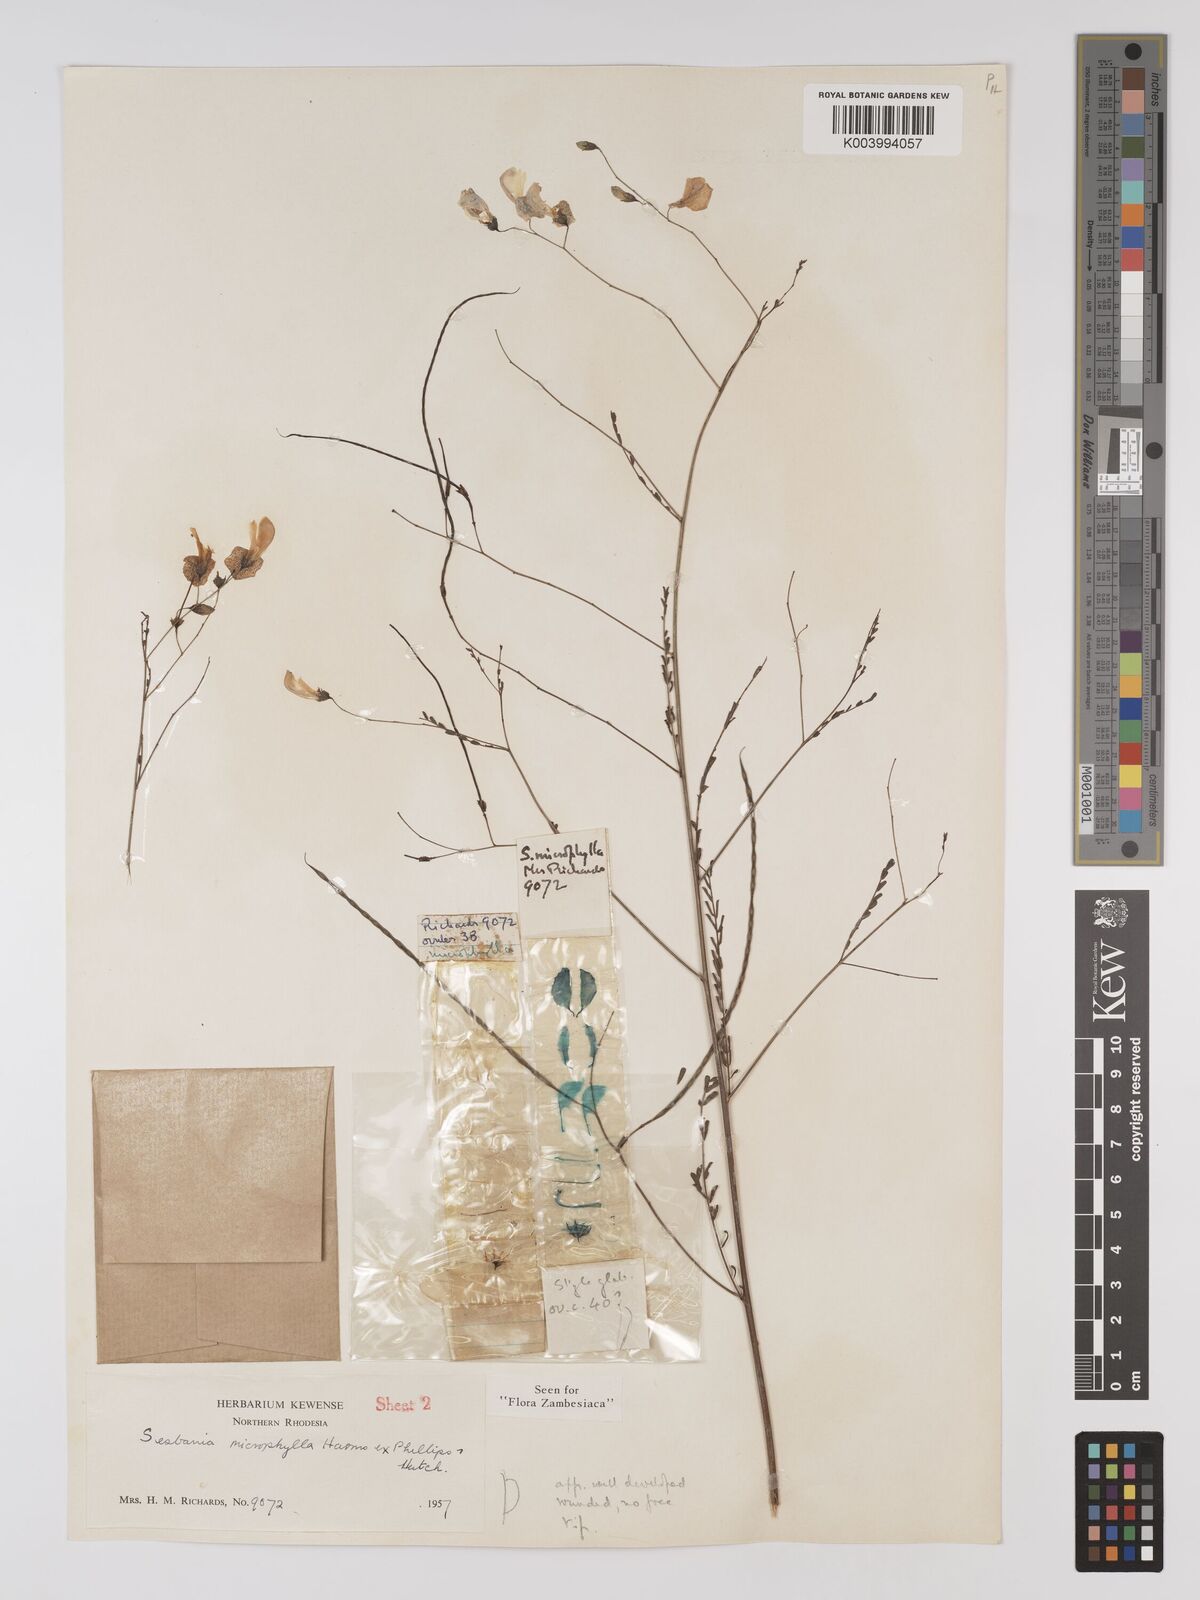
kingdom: Plantae
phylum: Tracheophyta
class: Magnoliopsida
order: Fabales
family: Fabaceae
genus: Sesbania
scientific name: Sesbania microphylla
